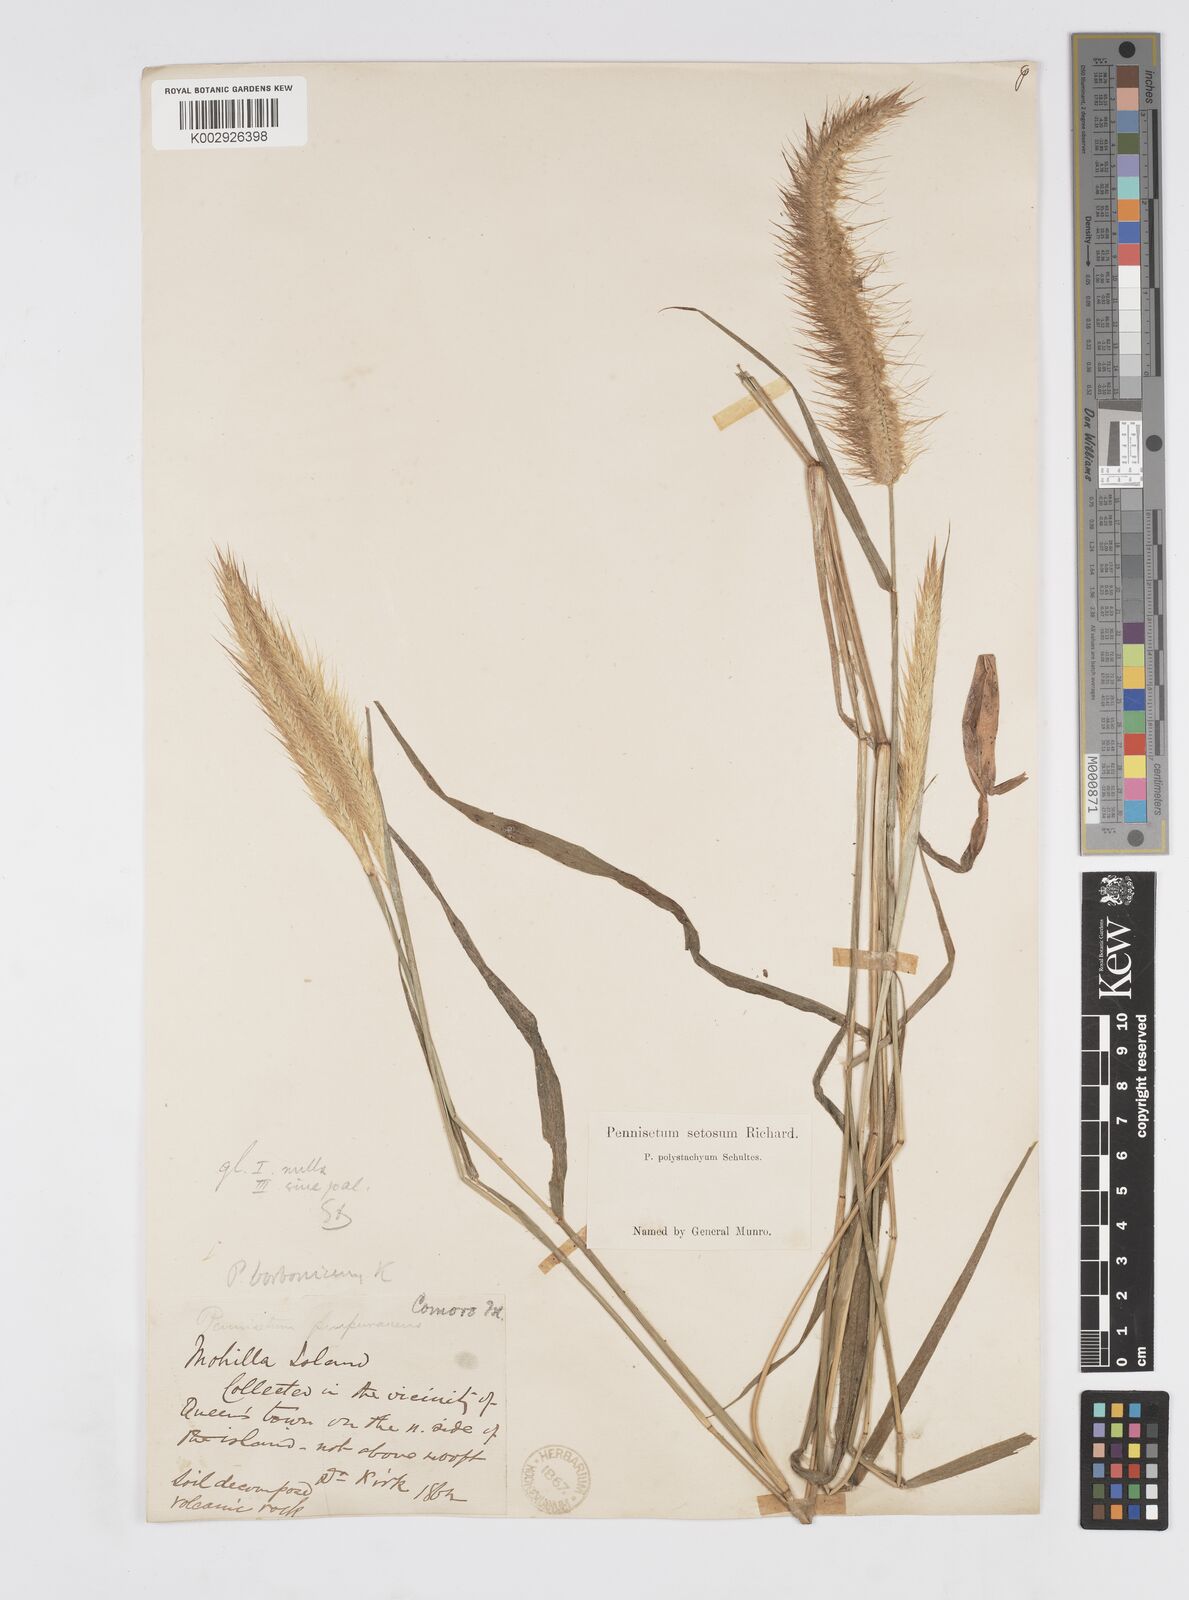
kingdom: Plantae
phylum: Tracheophyta
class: Liliopsida
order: Poales
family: Poaceae
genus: Setaria
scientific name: Setaria parviflora
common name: Knotroot bristle-grass
